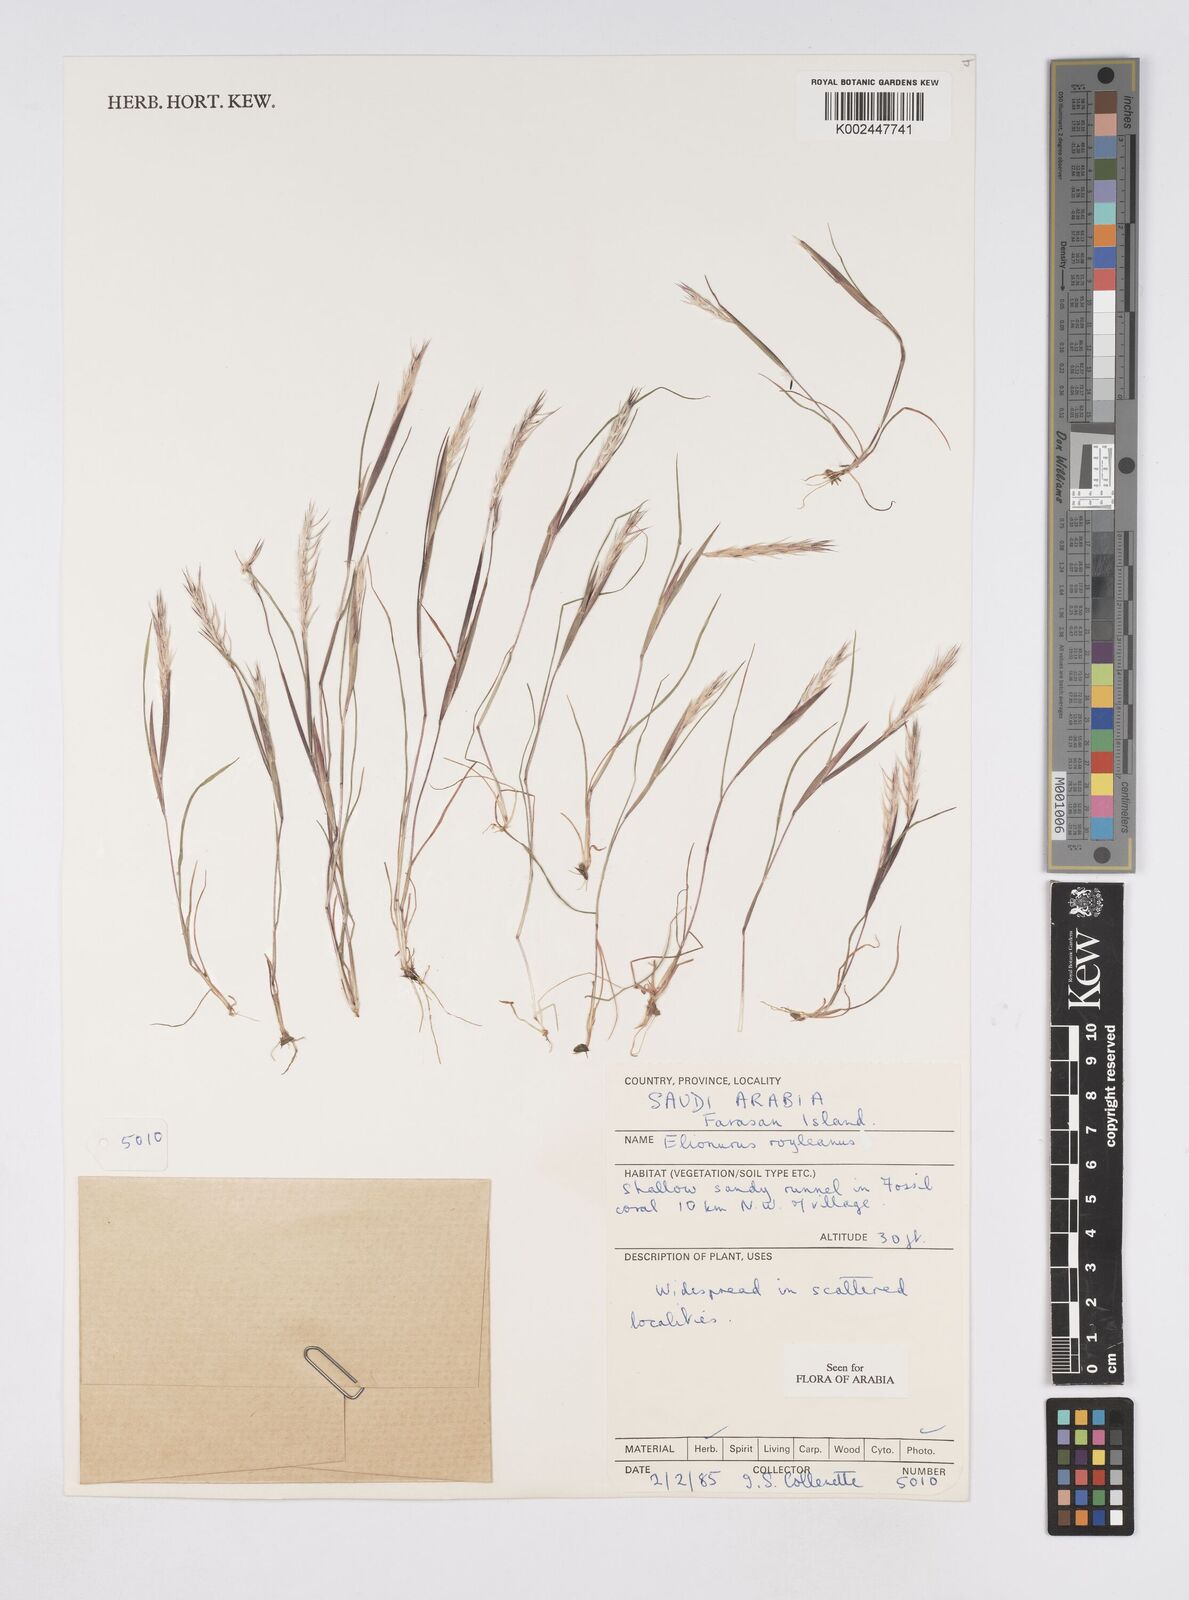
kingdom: Plantae
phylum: Tracheophyta
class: Liliopsida
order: Poales
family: Poaceae
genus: Elionurus
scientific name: Elionurus royleanus
